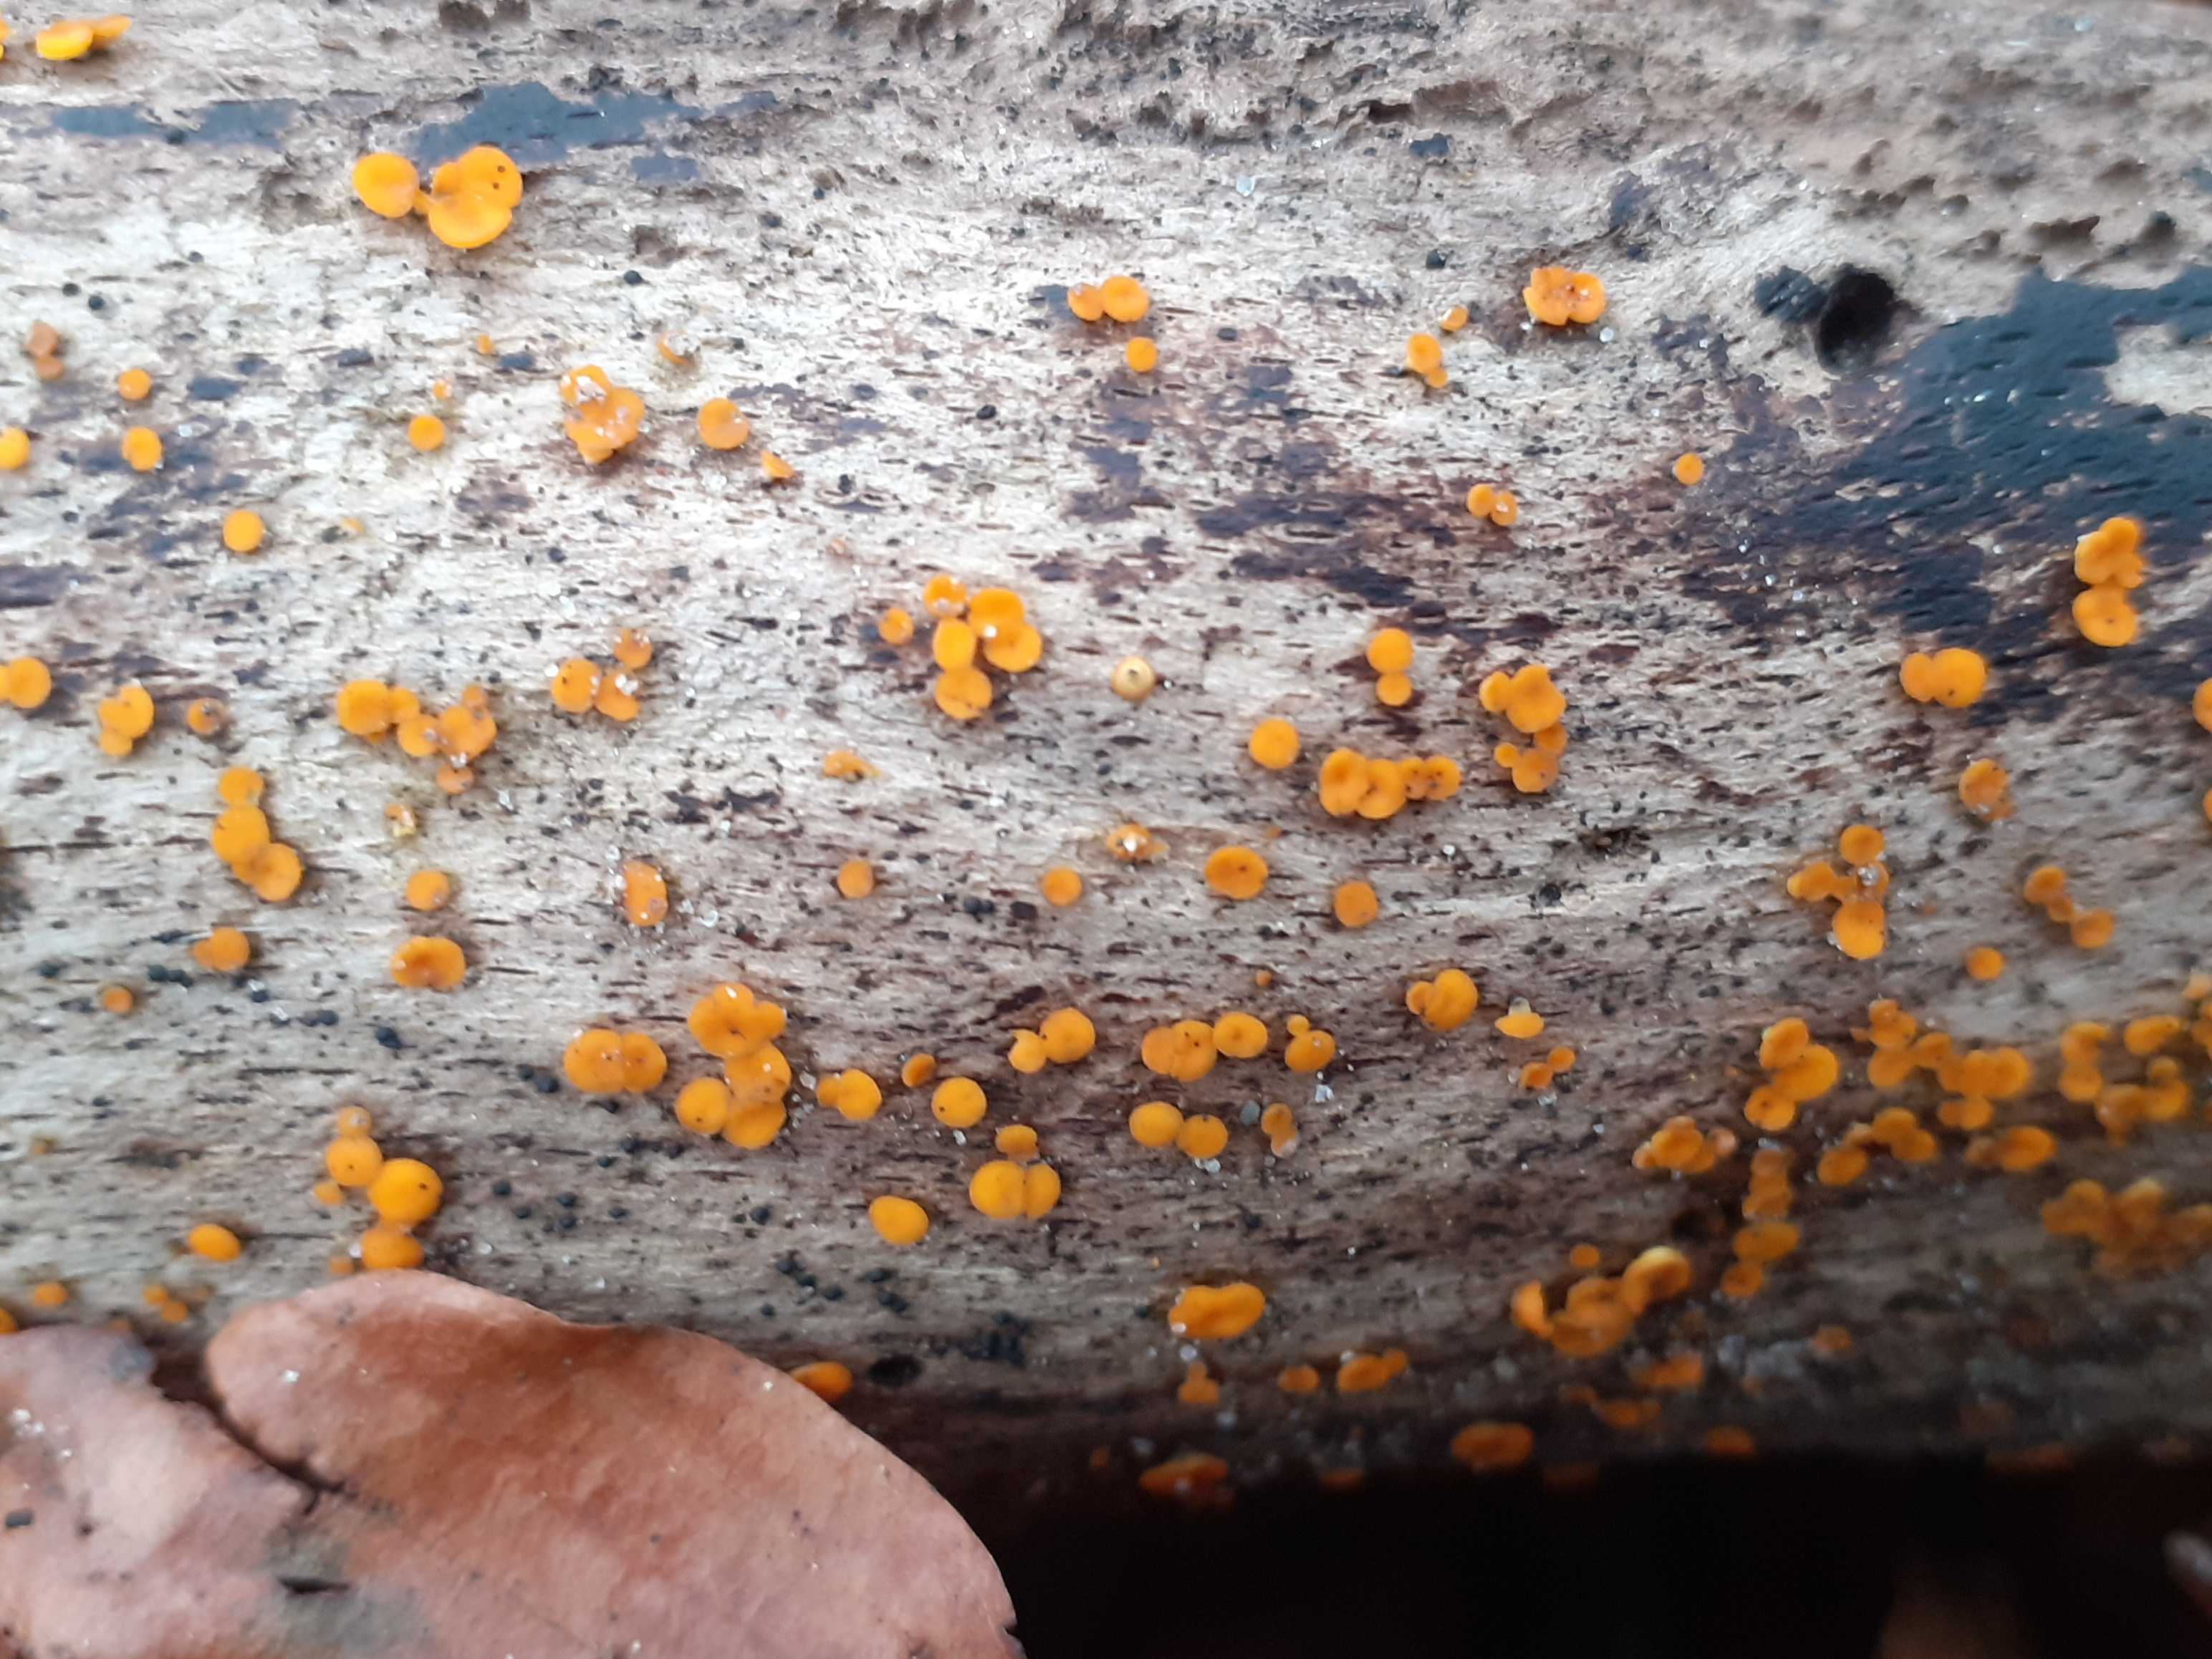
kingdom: Fungi
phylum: Ascomycota
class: Leotiomycetes
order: Helotiales
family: Pezizellaceae
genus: Calycina
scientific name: Calycina citrina
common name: almindelig gulskive
